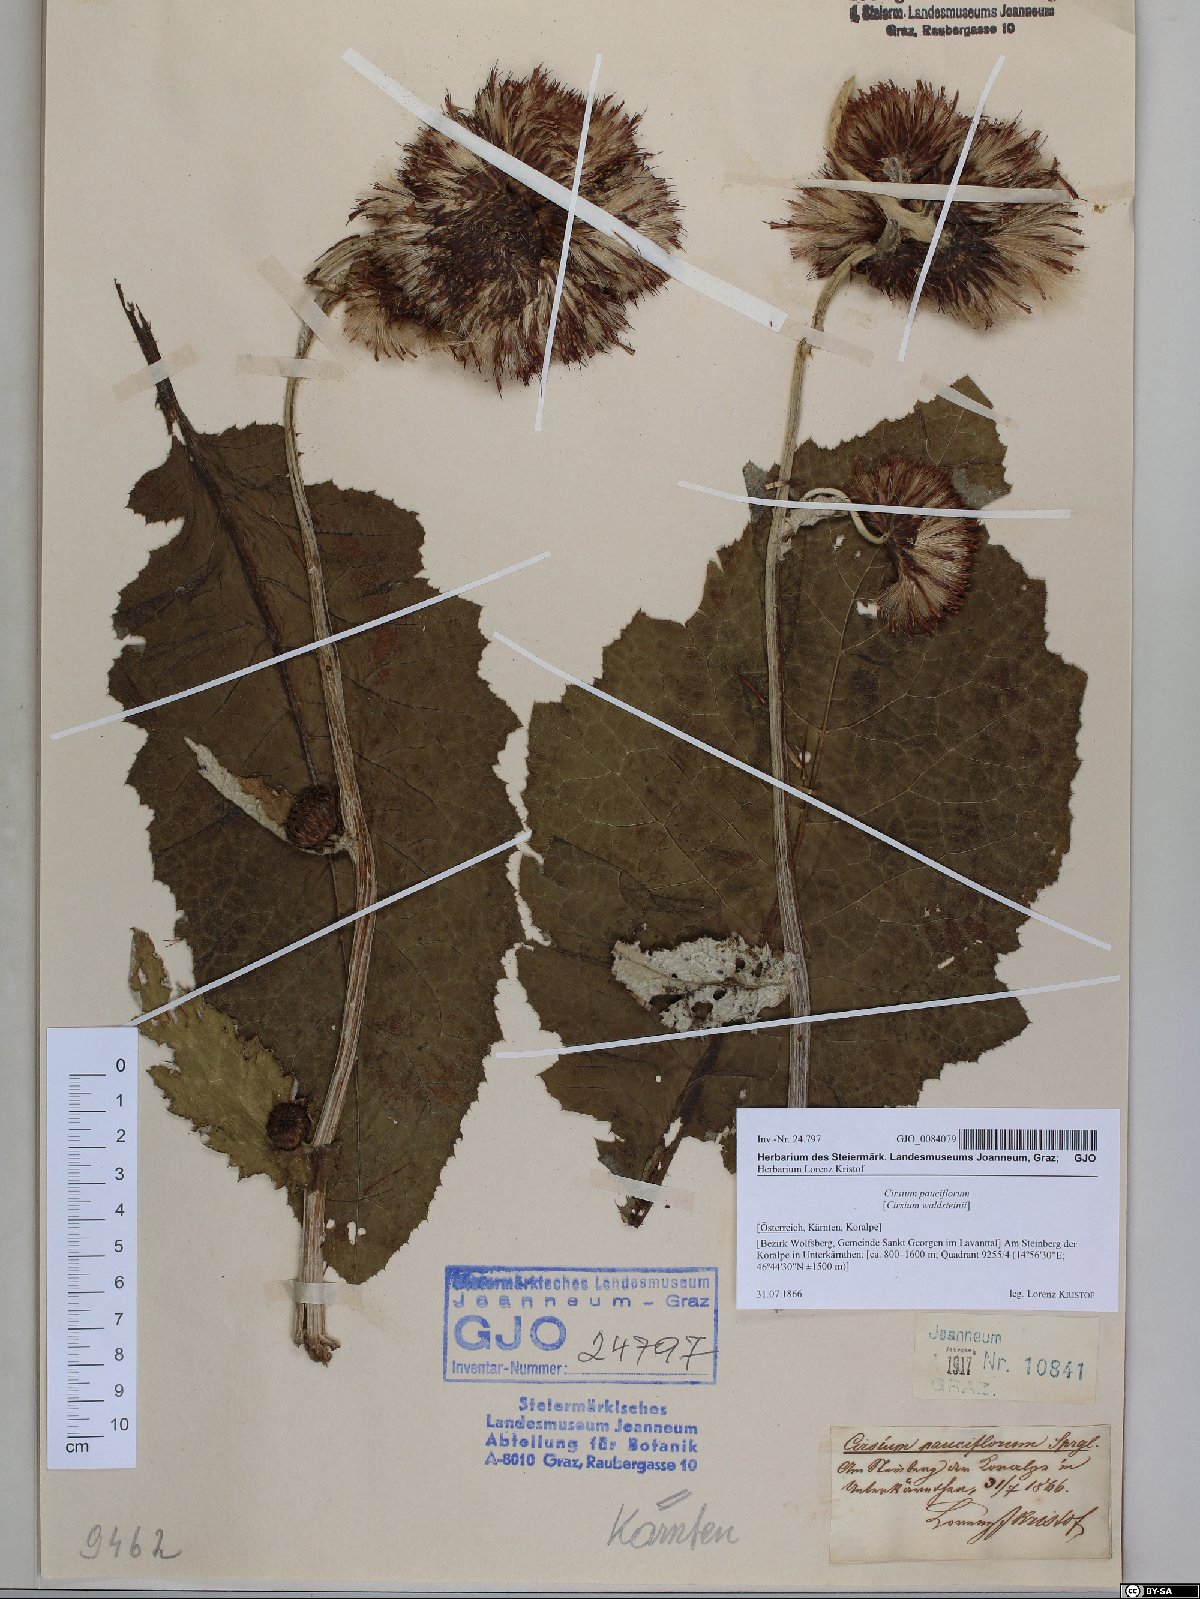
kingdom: Plantae
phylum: Tracheophyta
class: Magnoliopsida
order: Asterales
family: Asteraceae
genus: Cirsium
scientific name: Cirsium greimleri
